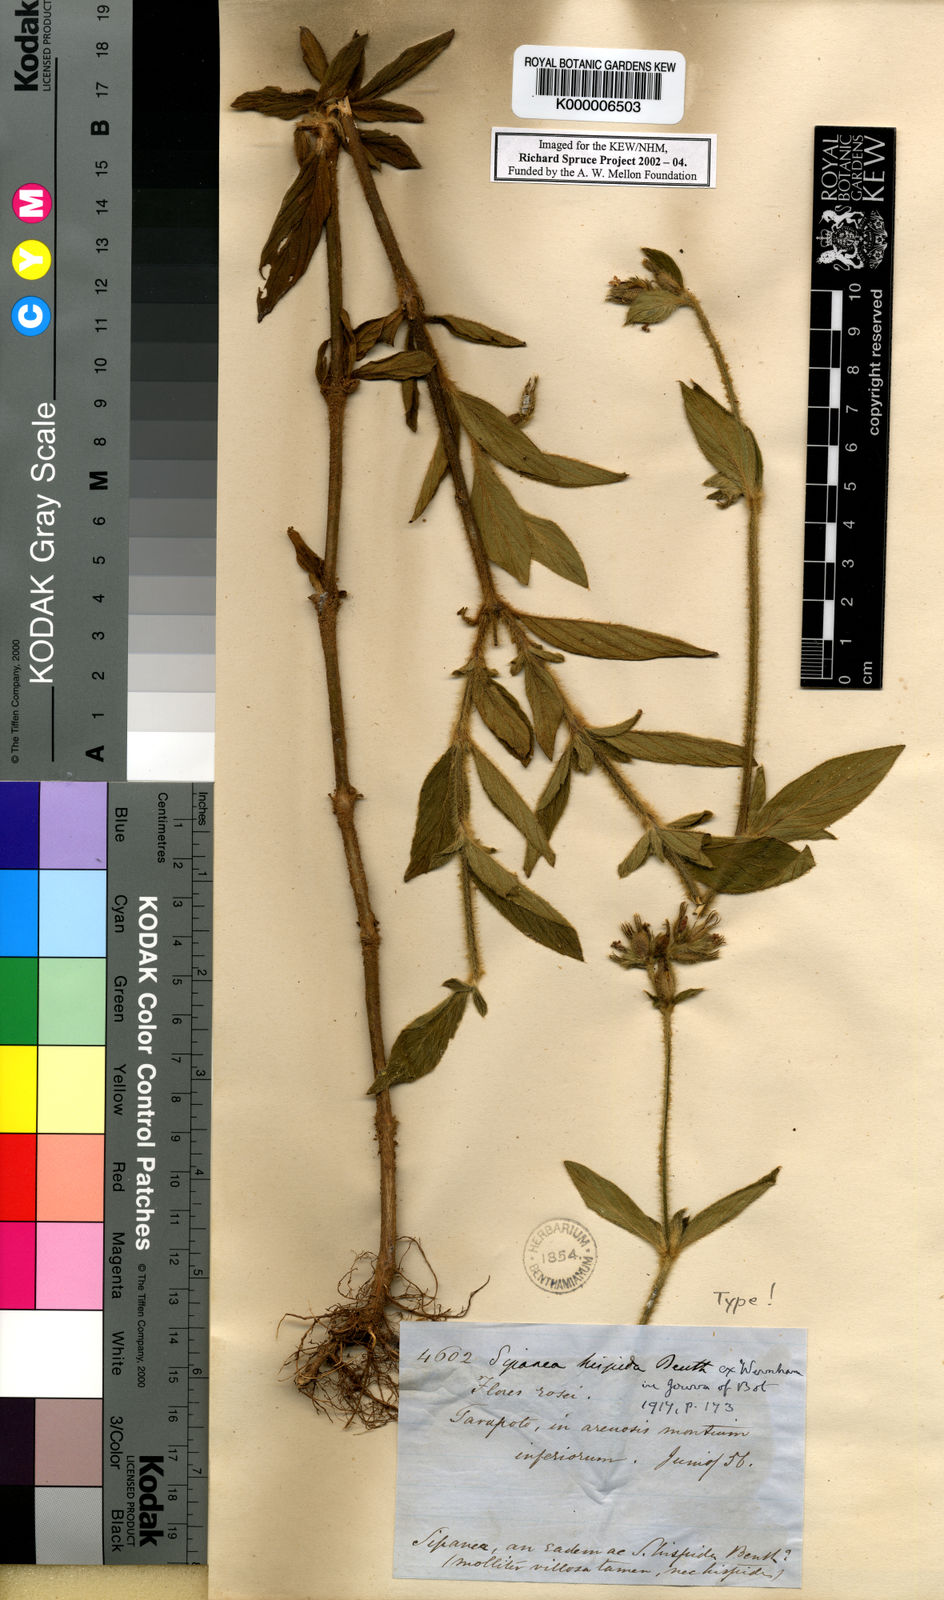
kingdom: Plantae
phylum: Tracheophyta
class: Magnoliopsida
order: Gentianales
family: Rubiaceae
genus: Sipanea
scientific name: Sipanea hispida
